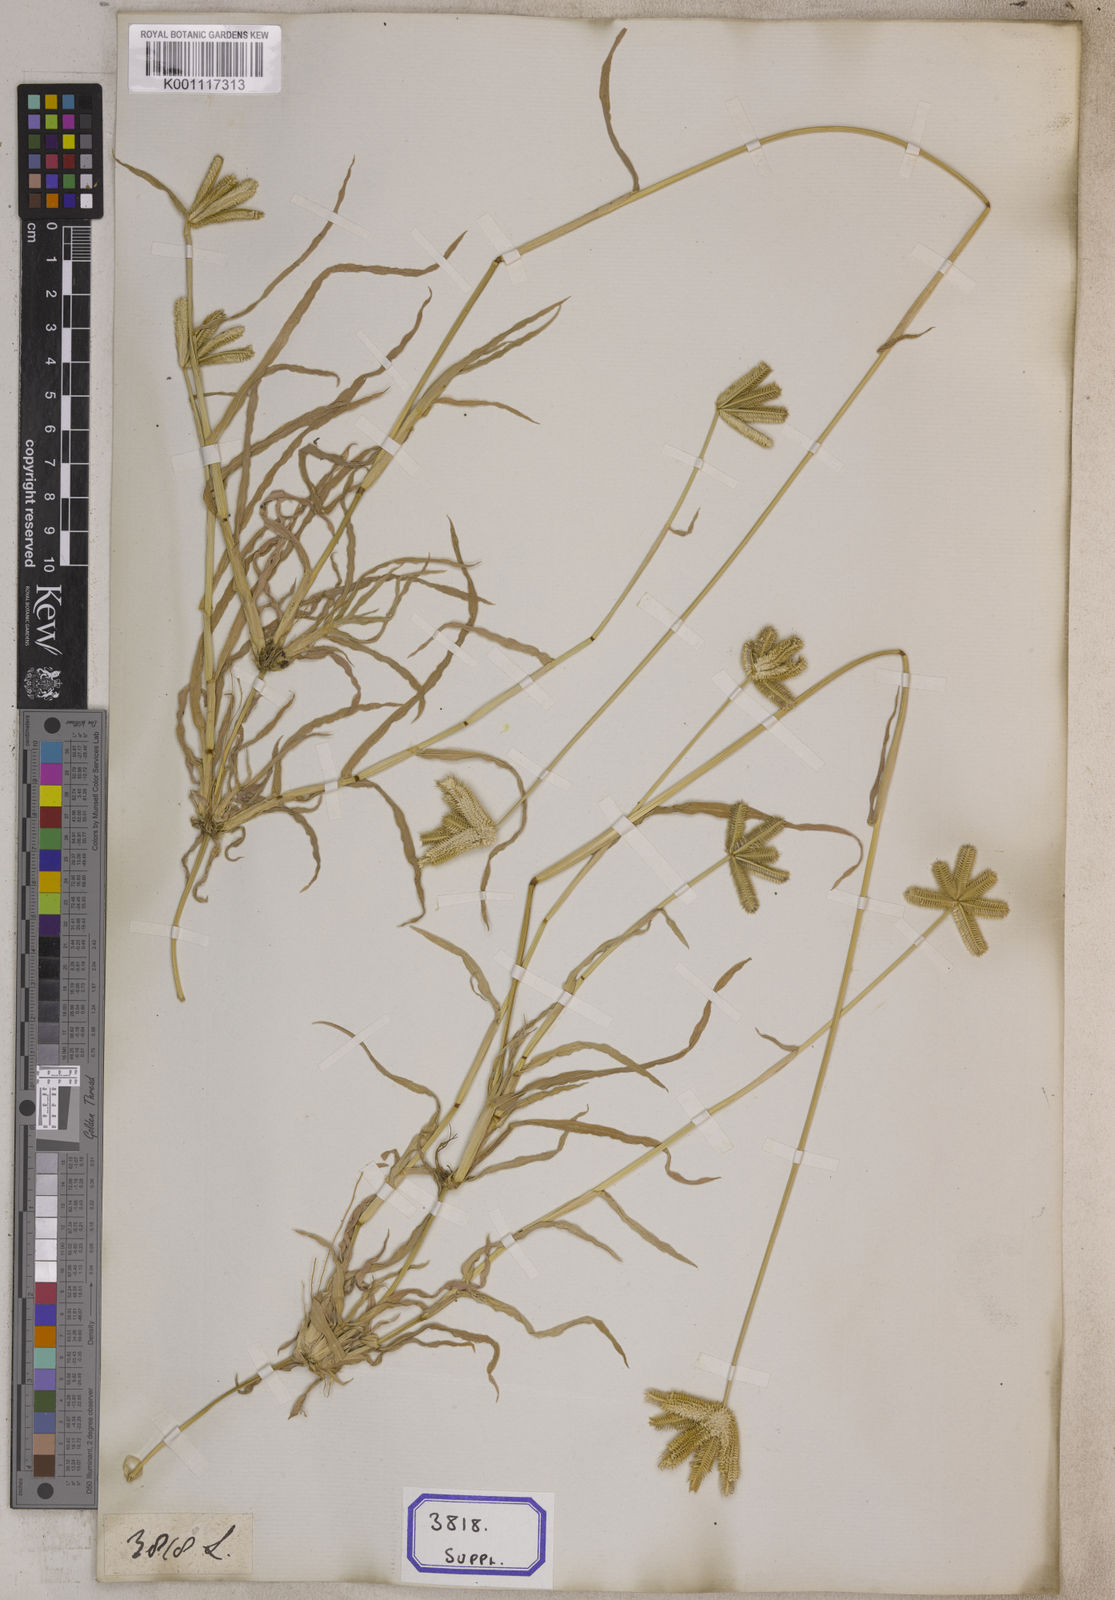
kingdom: Plantae
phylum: Tracheophyta
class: Liliopsida
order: Poales
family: Poaceae
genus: Eleusine
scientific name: Eleusine
